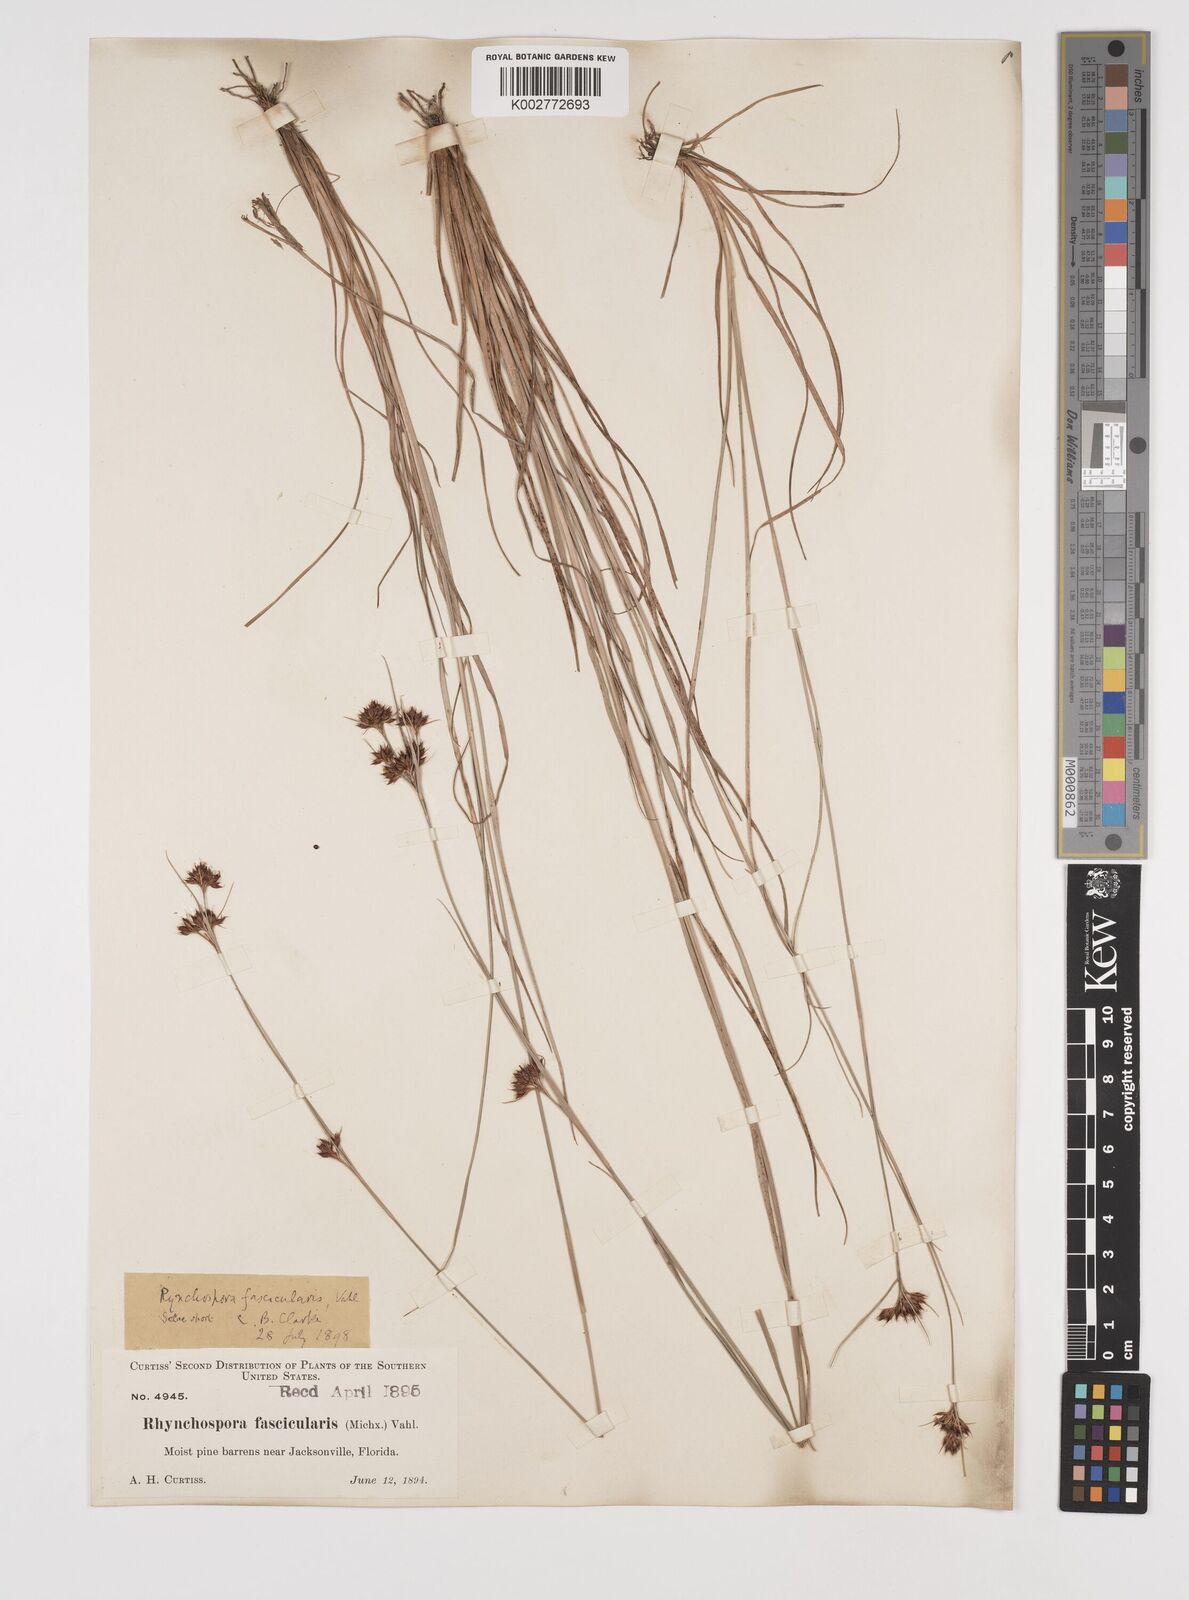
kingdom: Plantae
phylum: Tracheophyta
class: Liliopsida
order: Poales
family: Cyperaceae
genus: Rhynchospora
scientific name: Rhynchospora fascicularis
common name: Fascicled beak sedge
